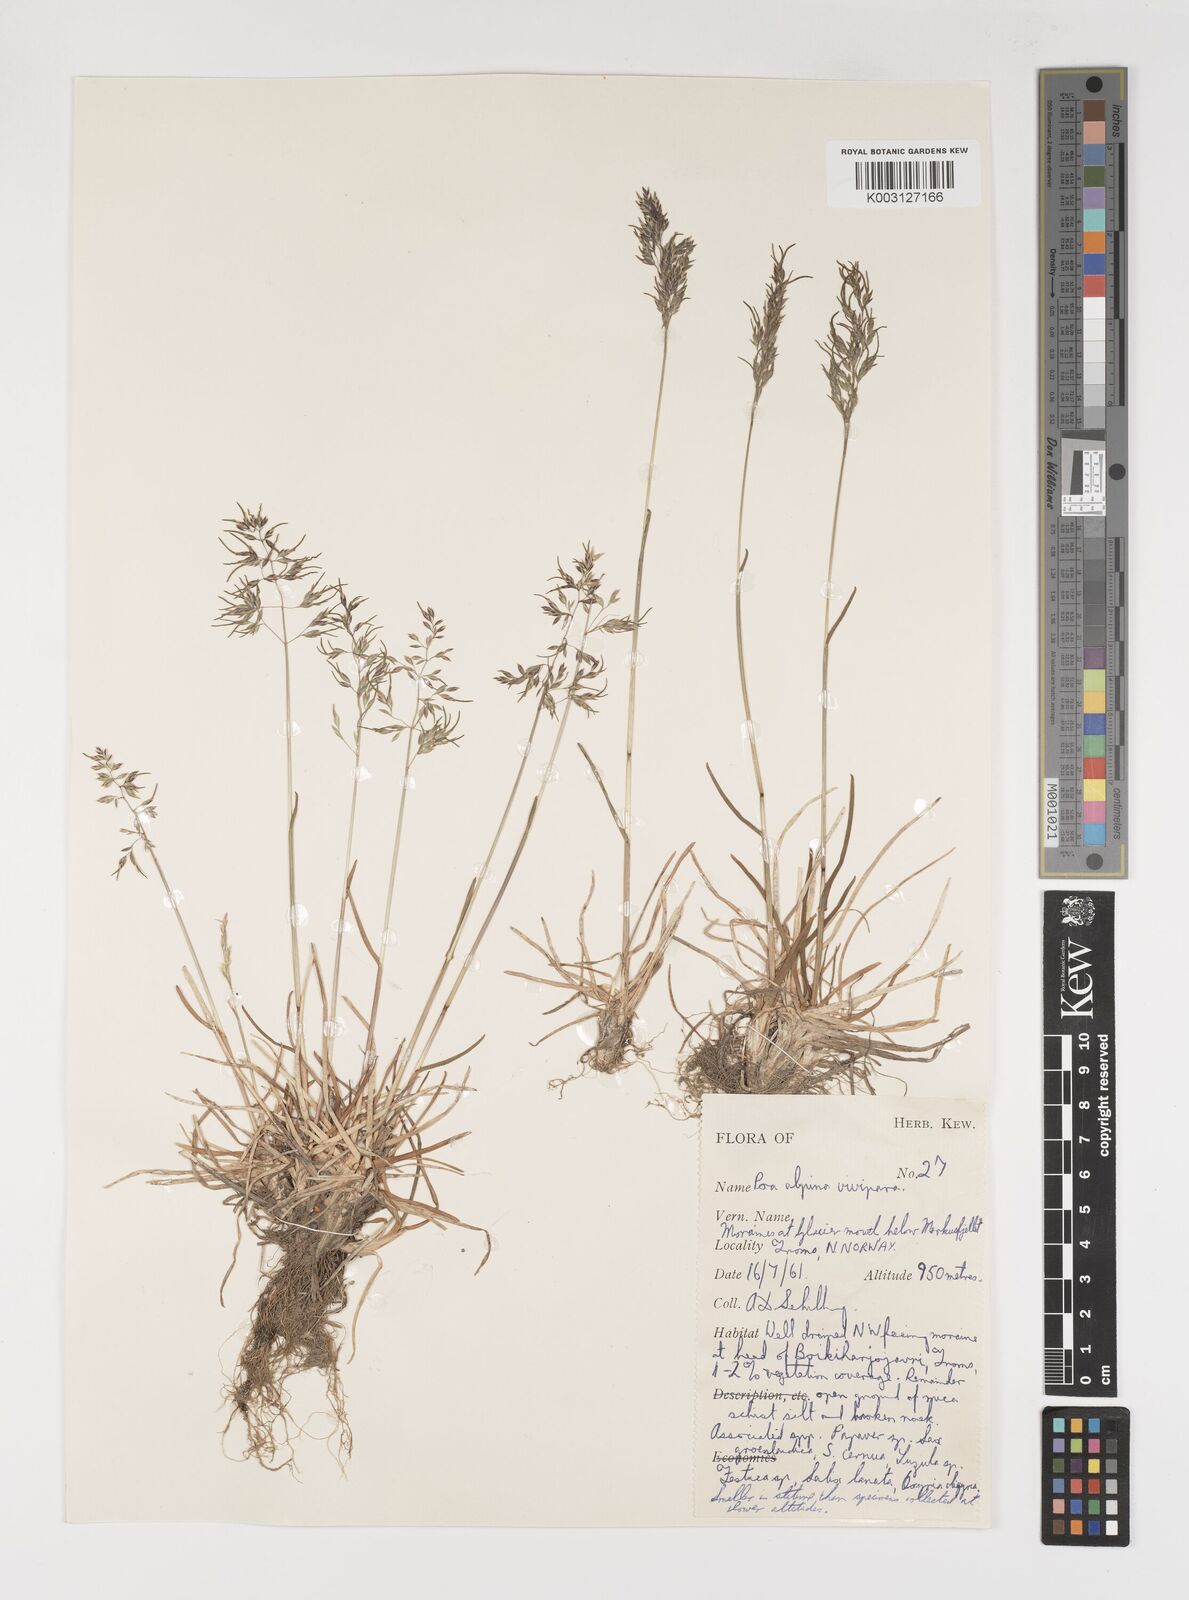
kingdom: Plantae
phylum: Tracheophyta
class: Liliopsida
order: Poales
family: Poaceae
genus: Poa
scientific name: Poa alpina
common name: Alpine bluegrass
